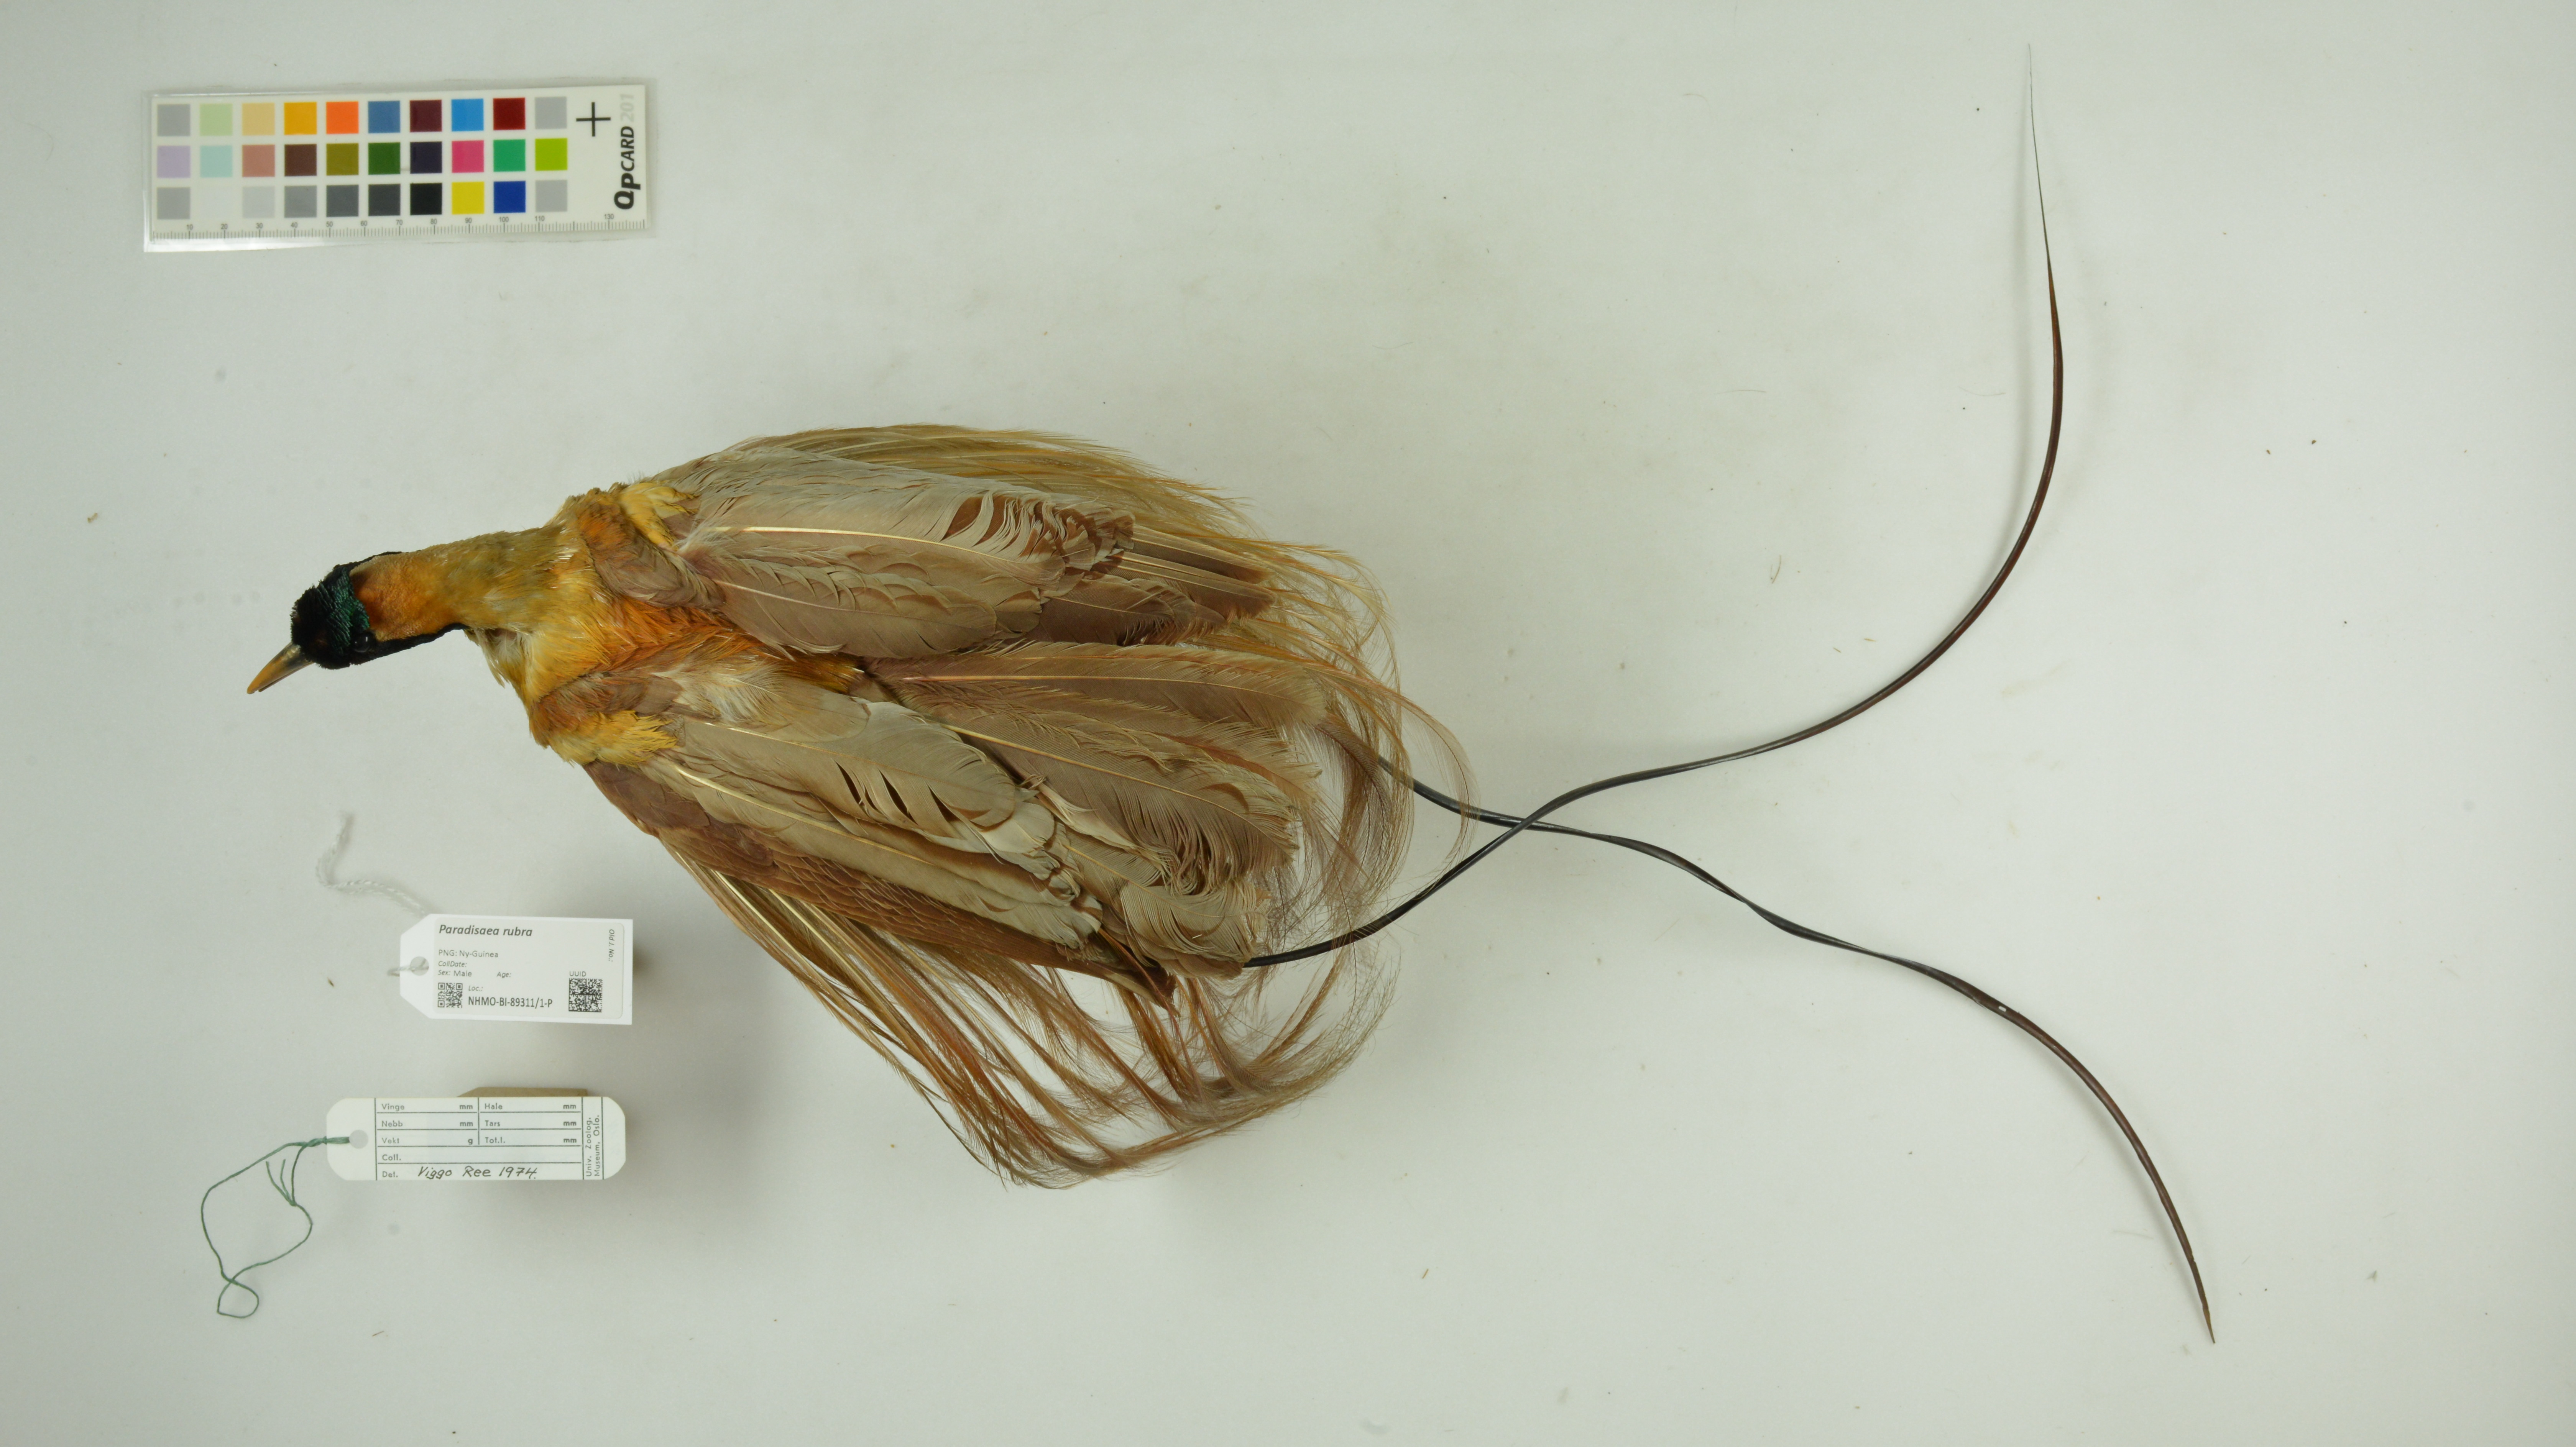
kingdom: Animalia
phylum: Chordata
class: Aves
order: Passeriformes
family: Paradisaeidae
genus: Paradisaea
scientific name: Paradisaea rubra
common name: Red bird-of-paradise
